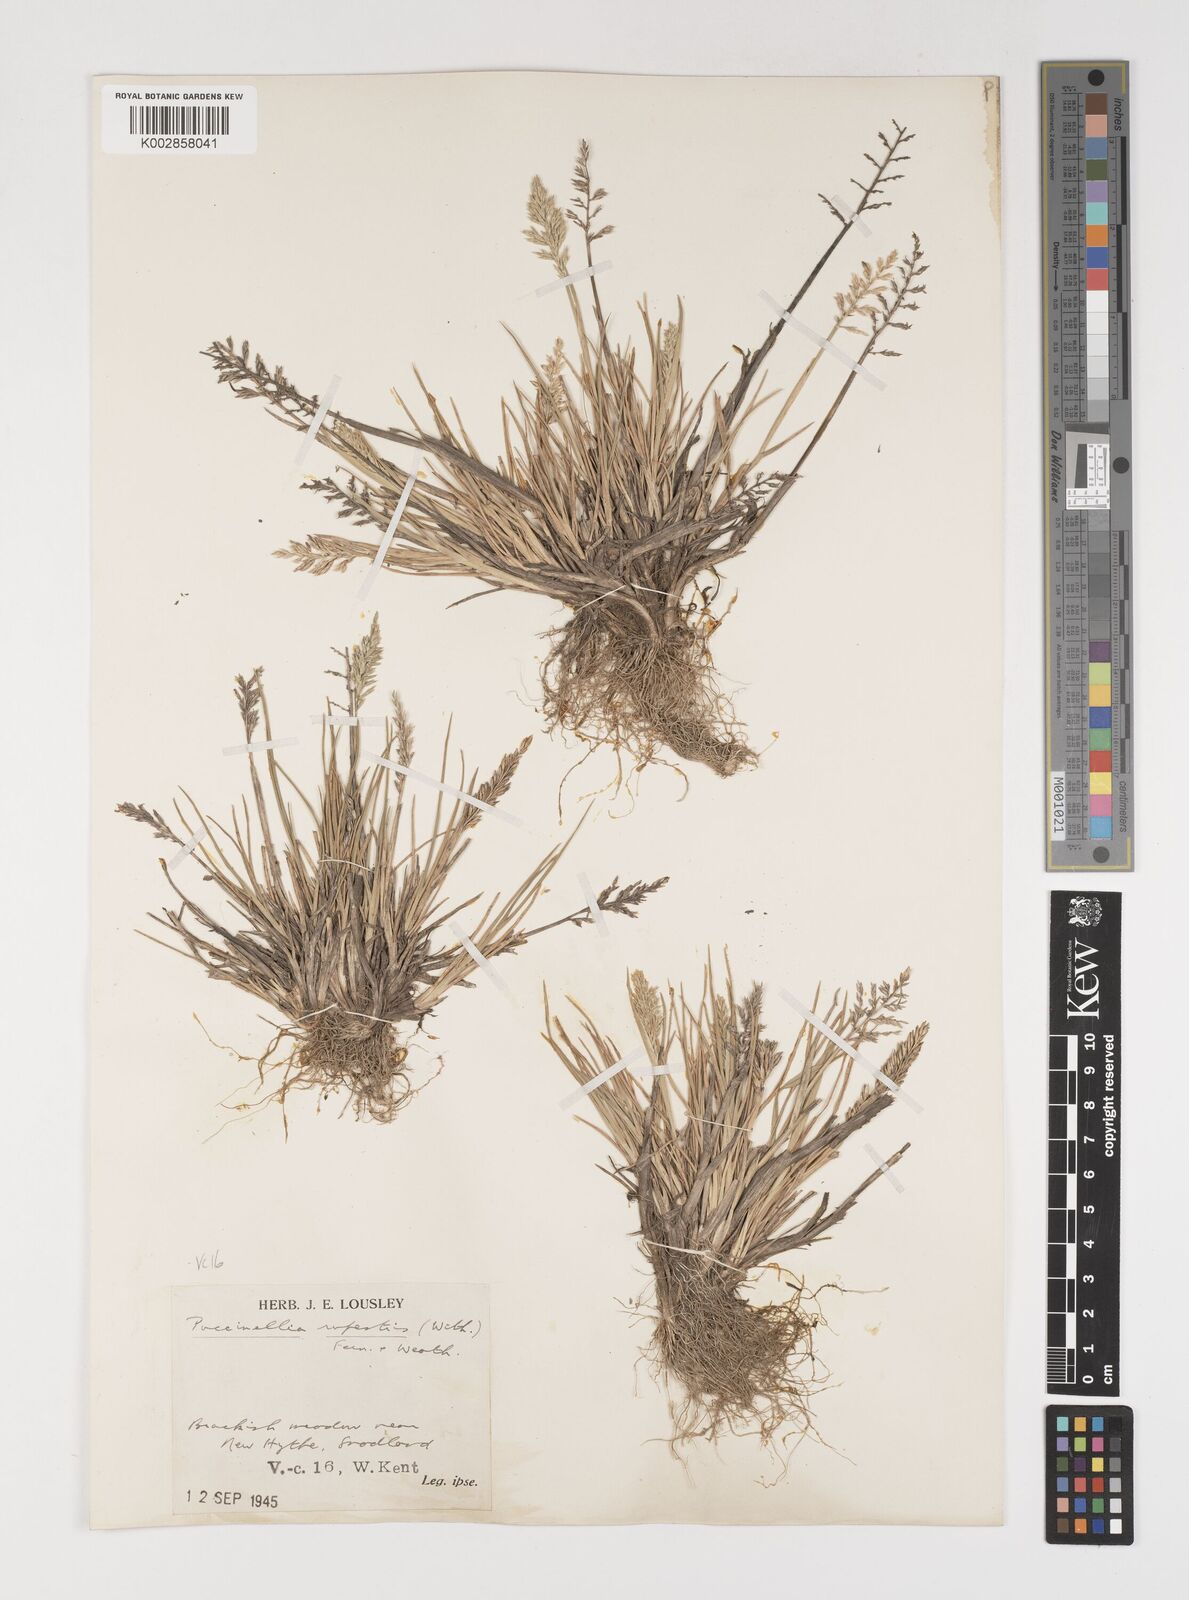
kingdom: Plantae
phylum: Tracheophyta
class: Liliopsida
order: Poales
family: Poaceae
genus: Puccinellia
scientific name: Puccinellia rupestris
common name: Stiff saltmarsh-grass
